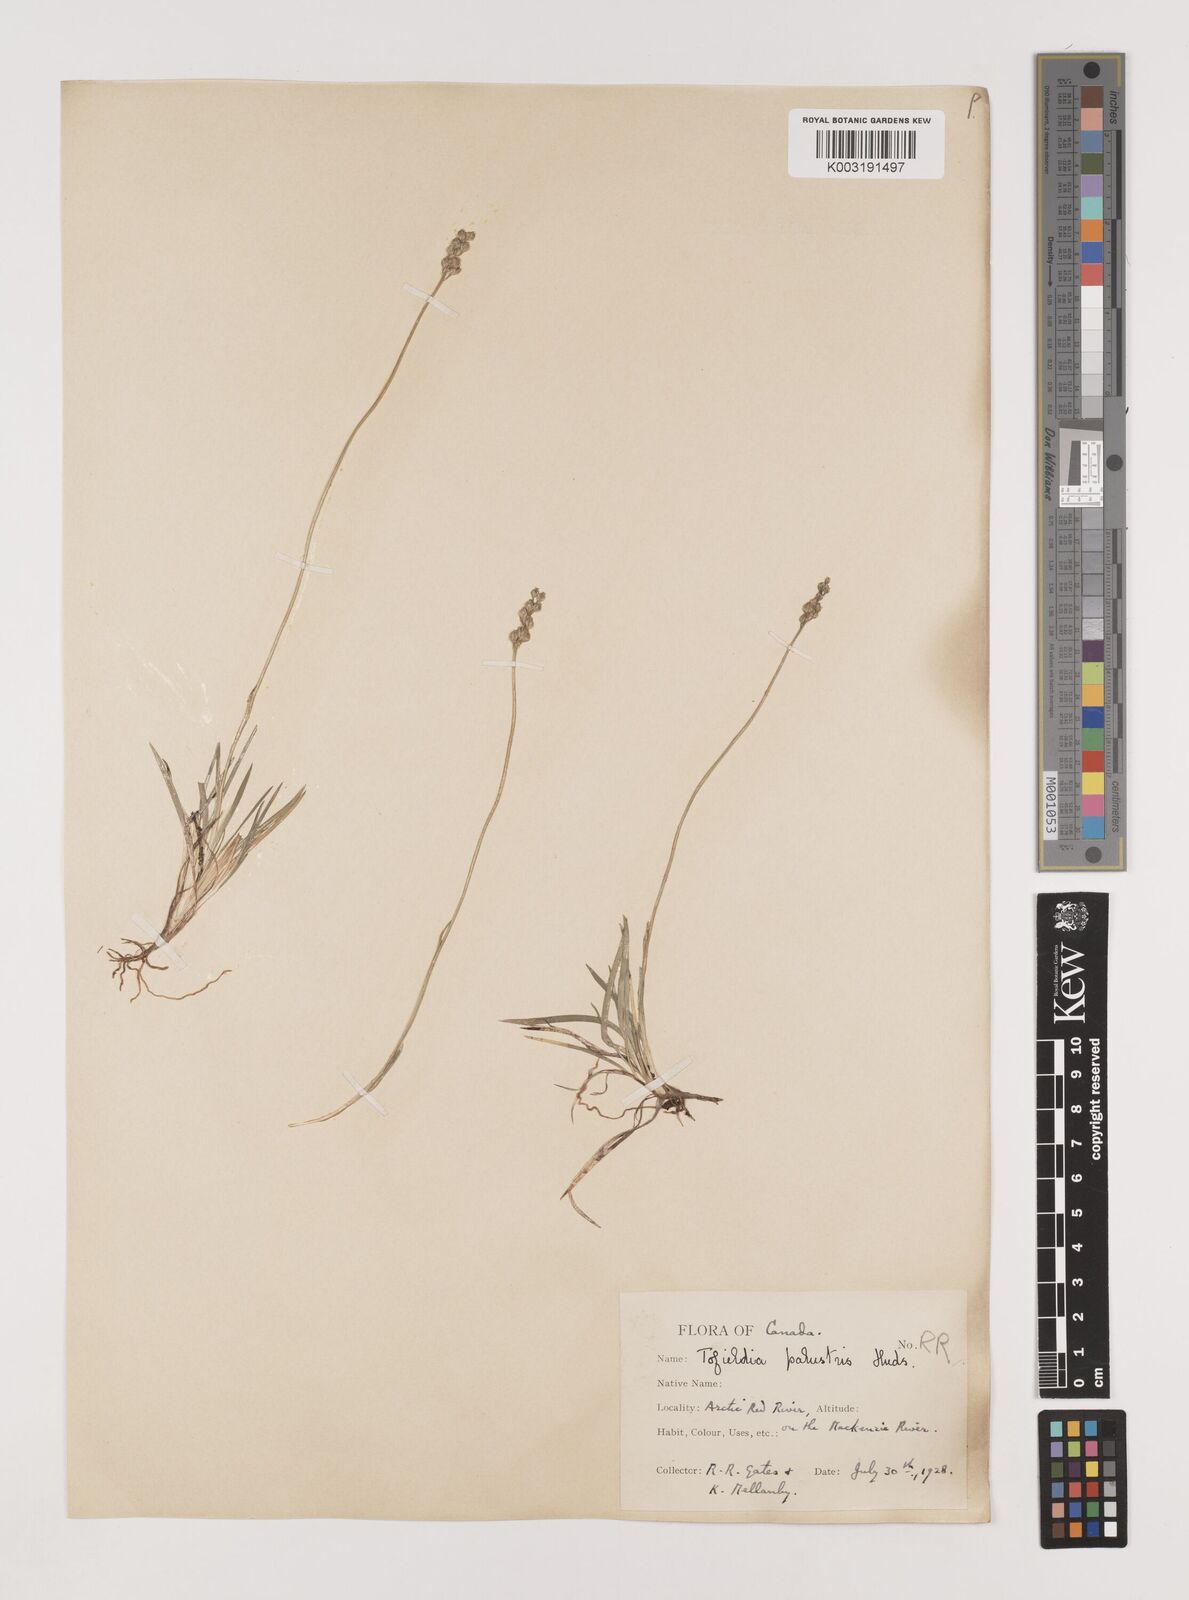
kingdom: Plantae
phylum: Tracheophyta
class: Liliopsida
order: Alismatales
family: Tofieldiaceae
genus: Tofieldia
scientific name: Tofieldia
